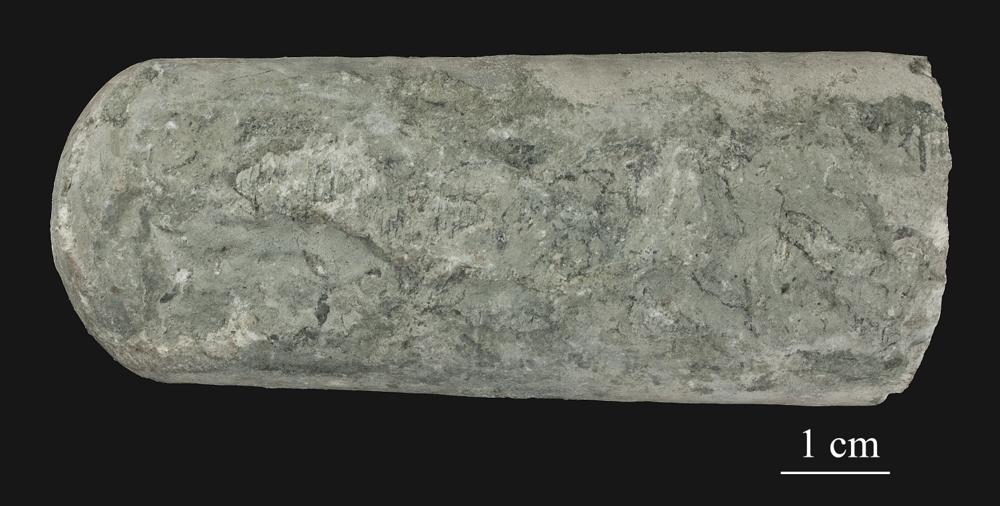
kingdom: Animalia
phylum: Mollusca
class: Cephalopoda
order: Orthocerida
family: Orthoceratidae
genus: Orthoceras
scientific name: Orthoceras
